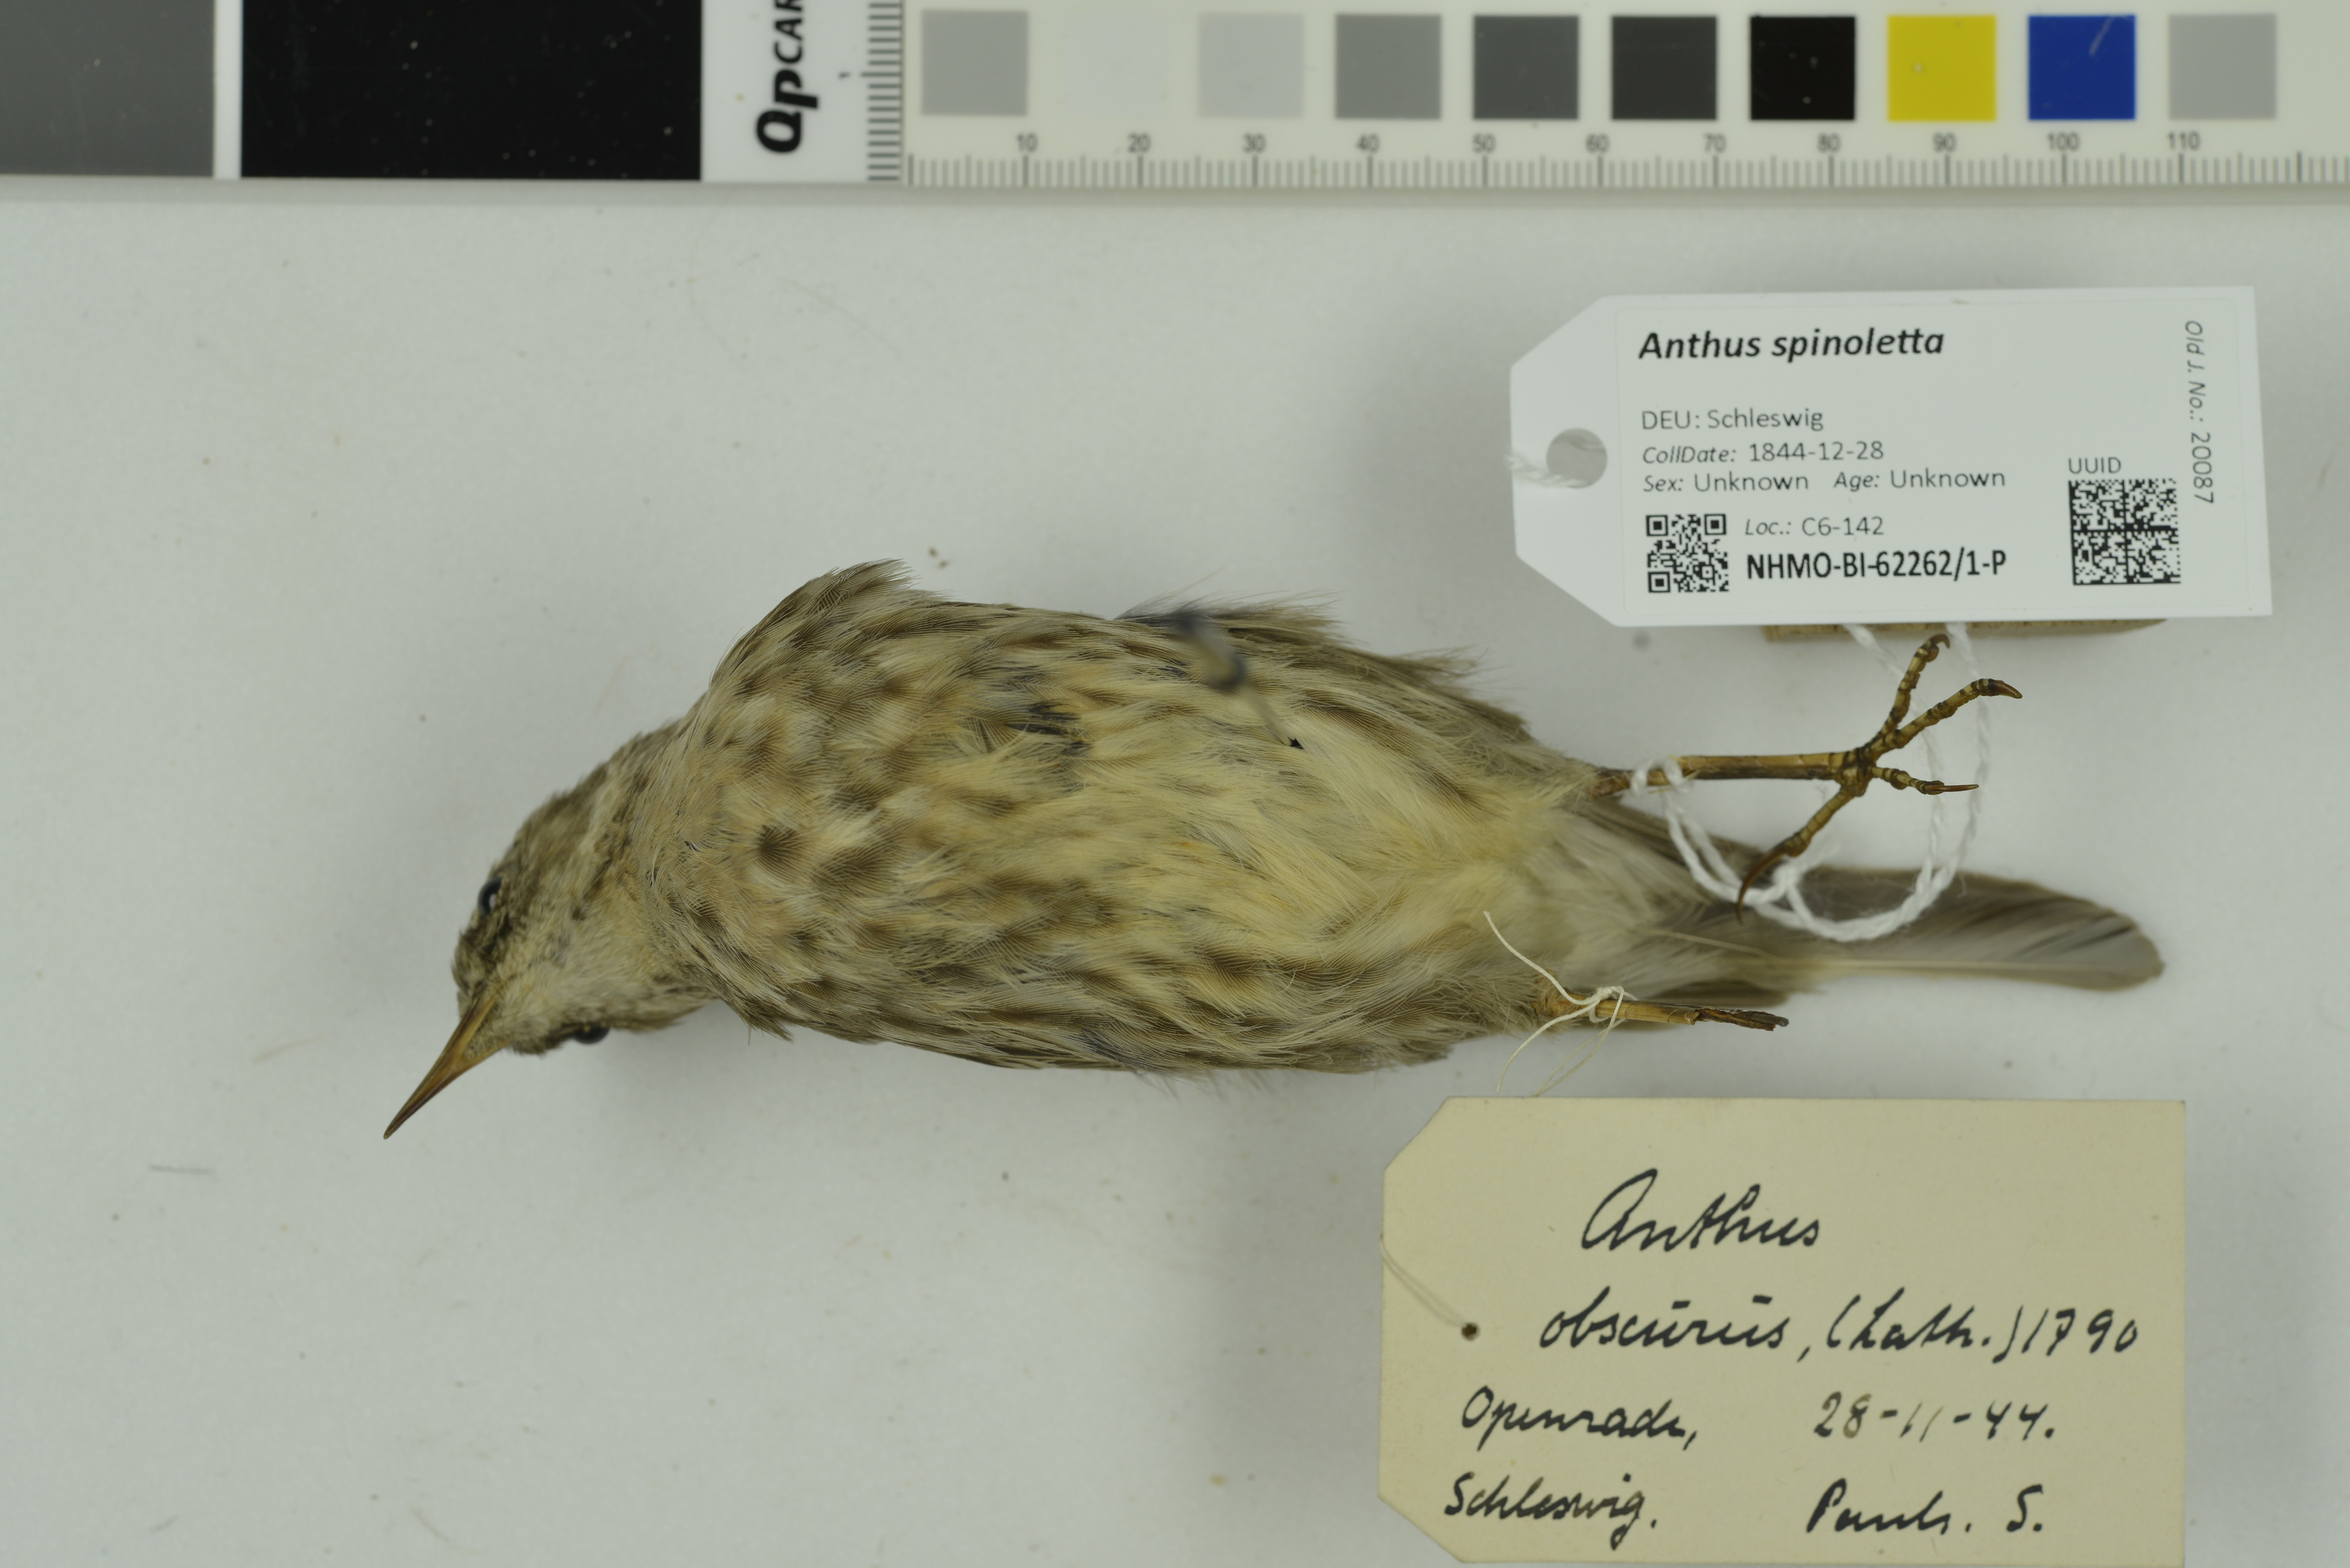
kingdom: Animalia
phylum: Chordata
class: Aves
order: Passeriformes
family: Motacillidae
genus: Anthus
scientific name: Anthus spinoletta
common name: Water pipit
